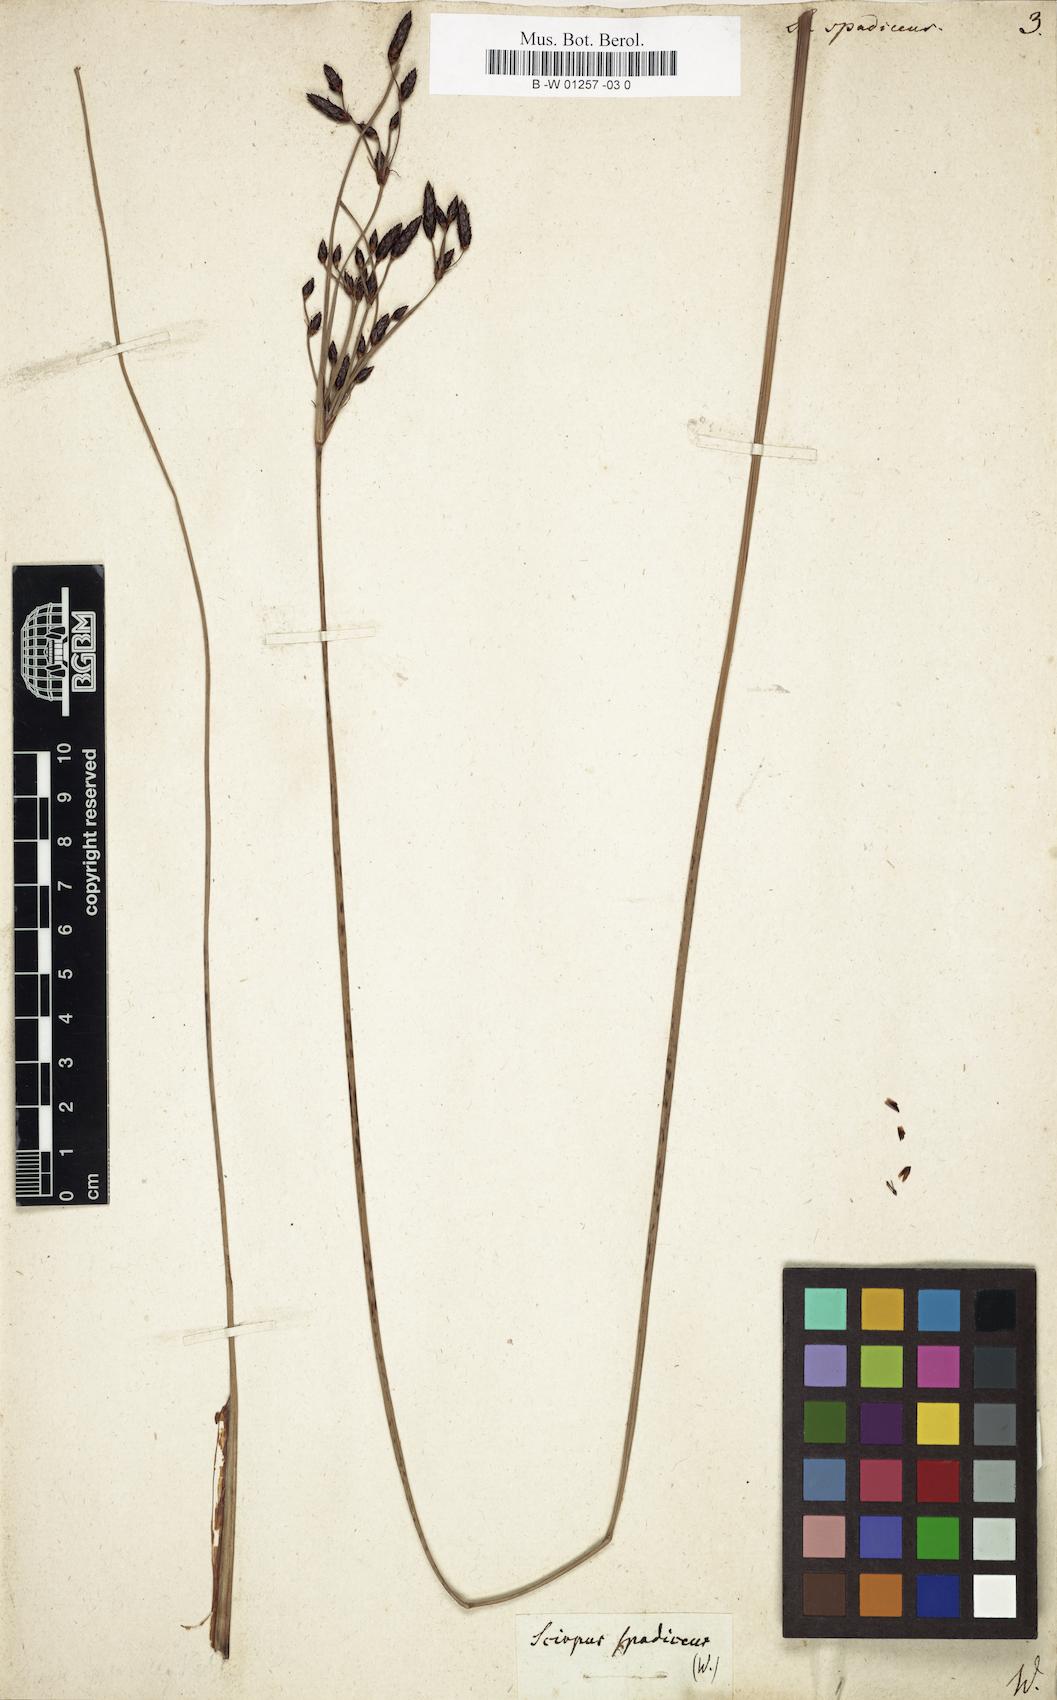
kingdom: Plantae
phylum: Tracheophyta
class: Liliopsida
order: Poales
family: Cyperaceae
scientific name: Cyperaceae
